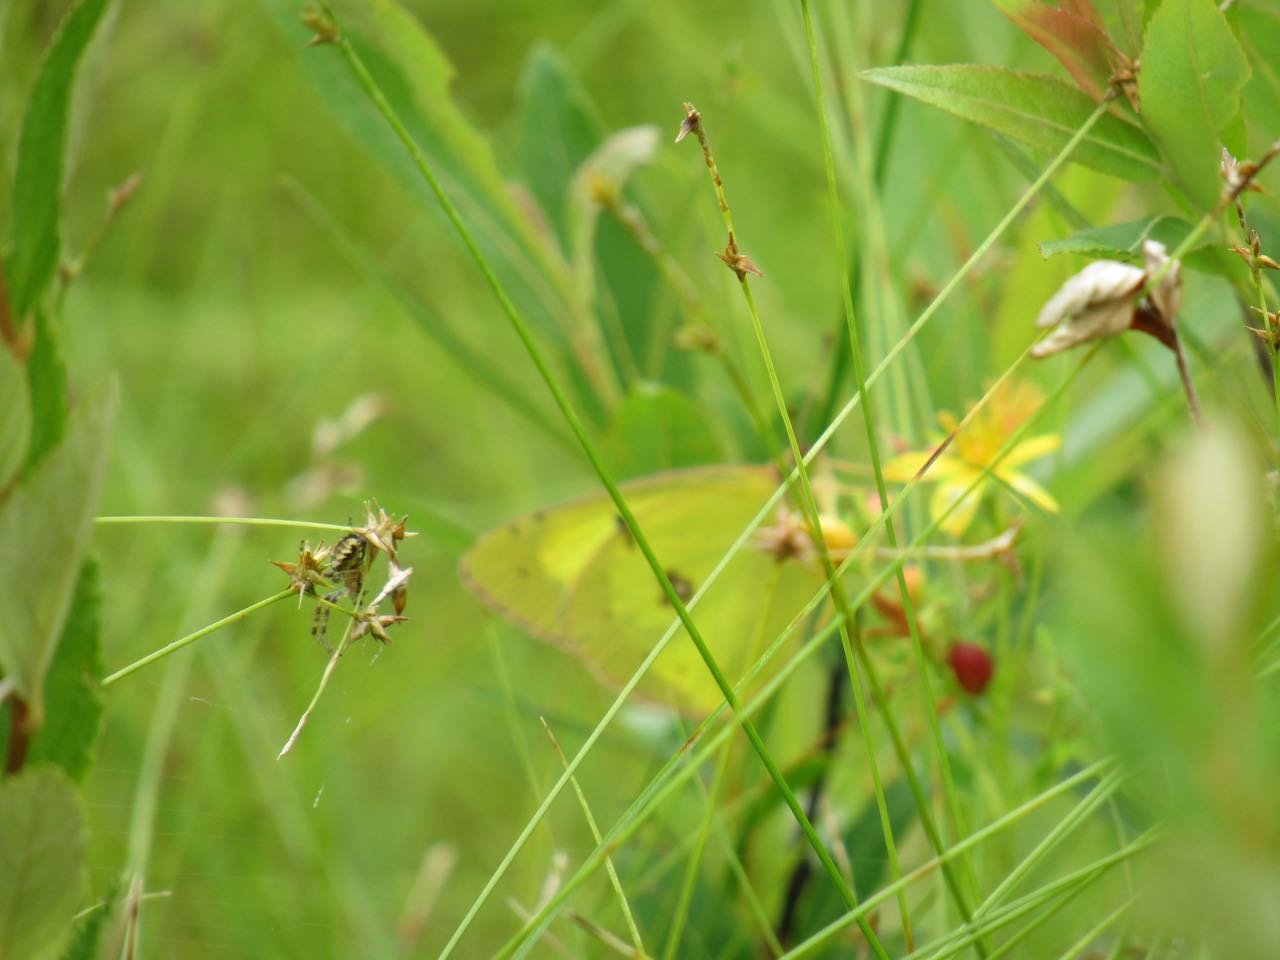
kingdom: Animalia
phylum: Arthropoda
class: Insecta
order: Lepidoptera
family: Pieridae
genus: Colias
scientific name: Colias philodice
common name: Clouded Sulphur
